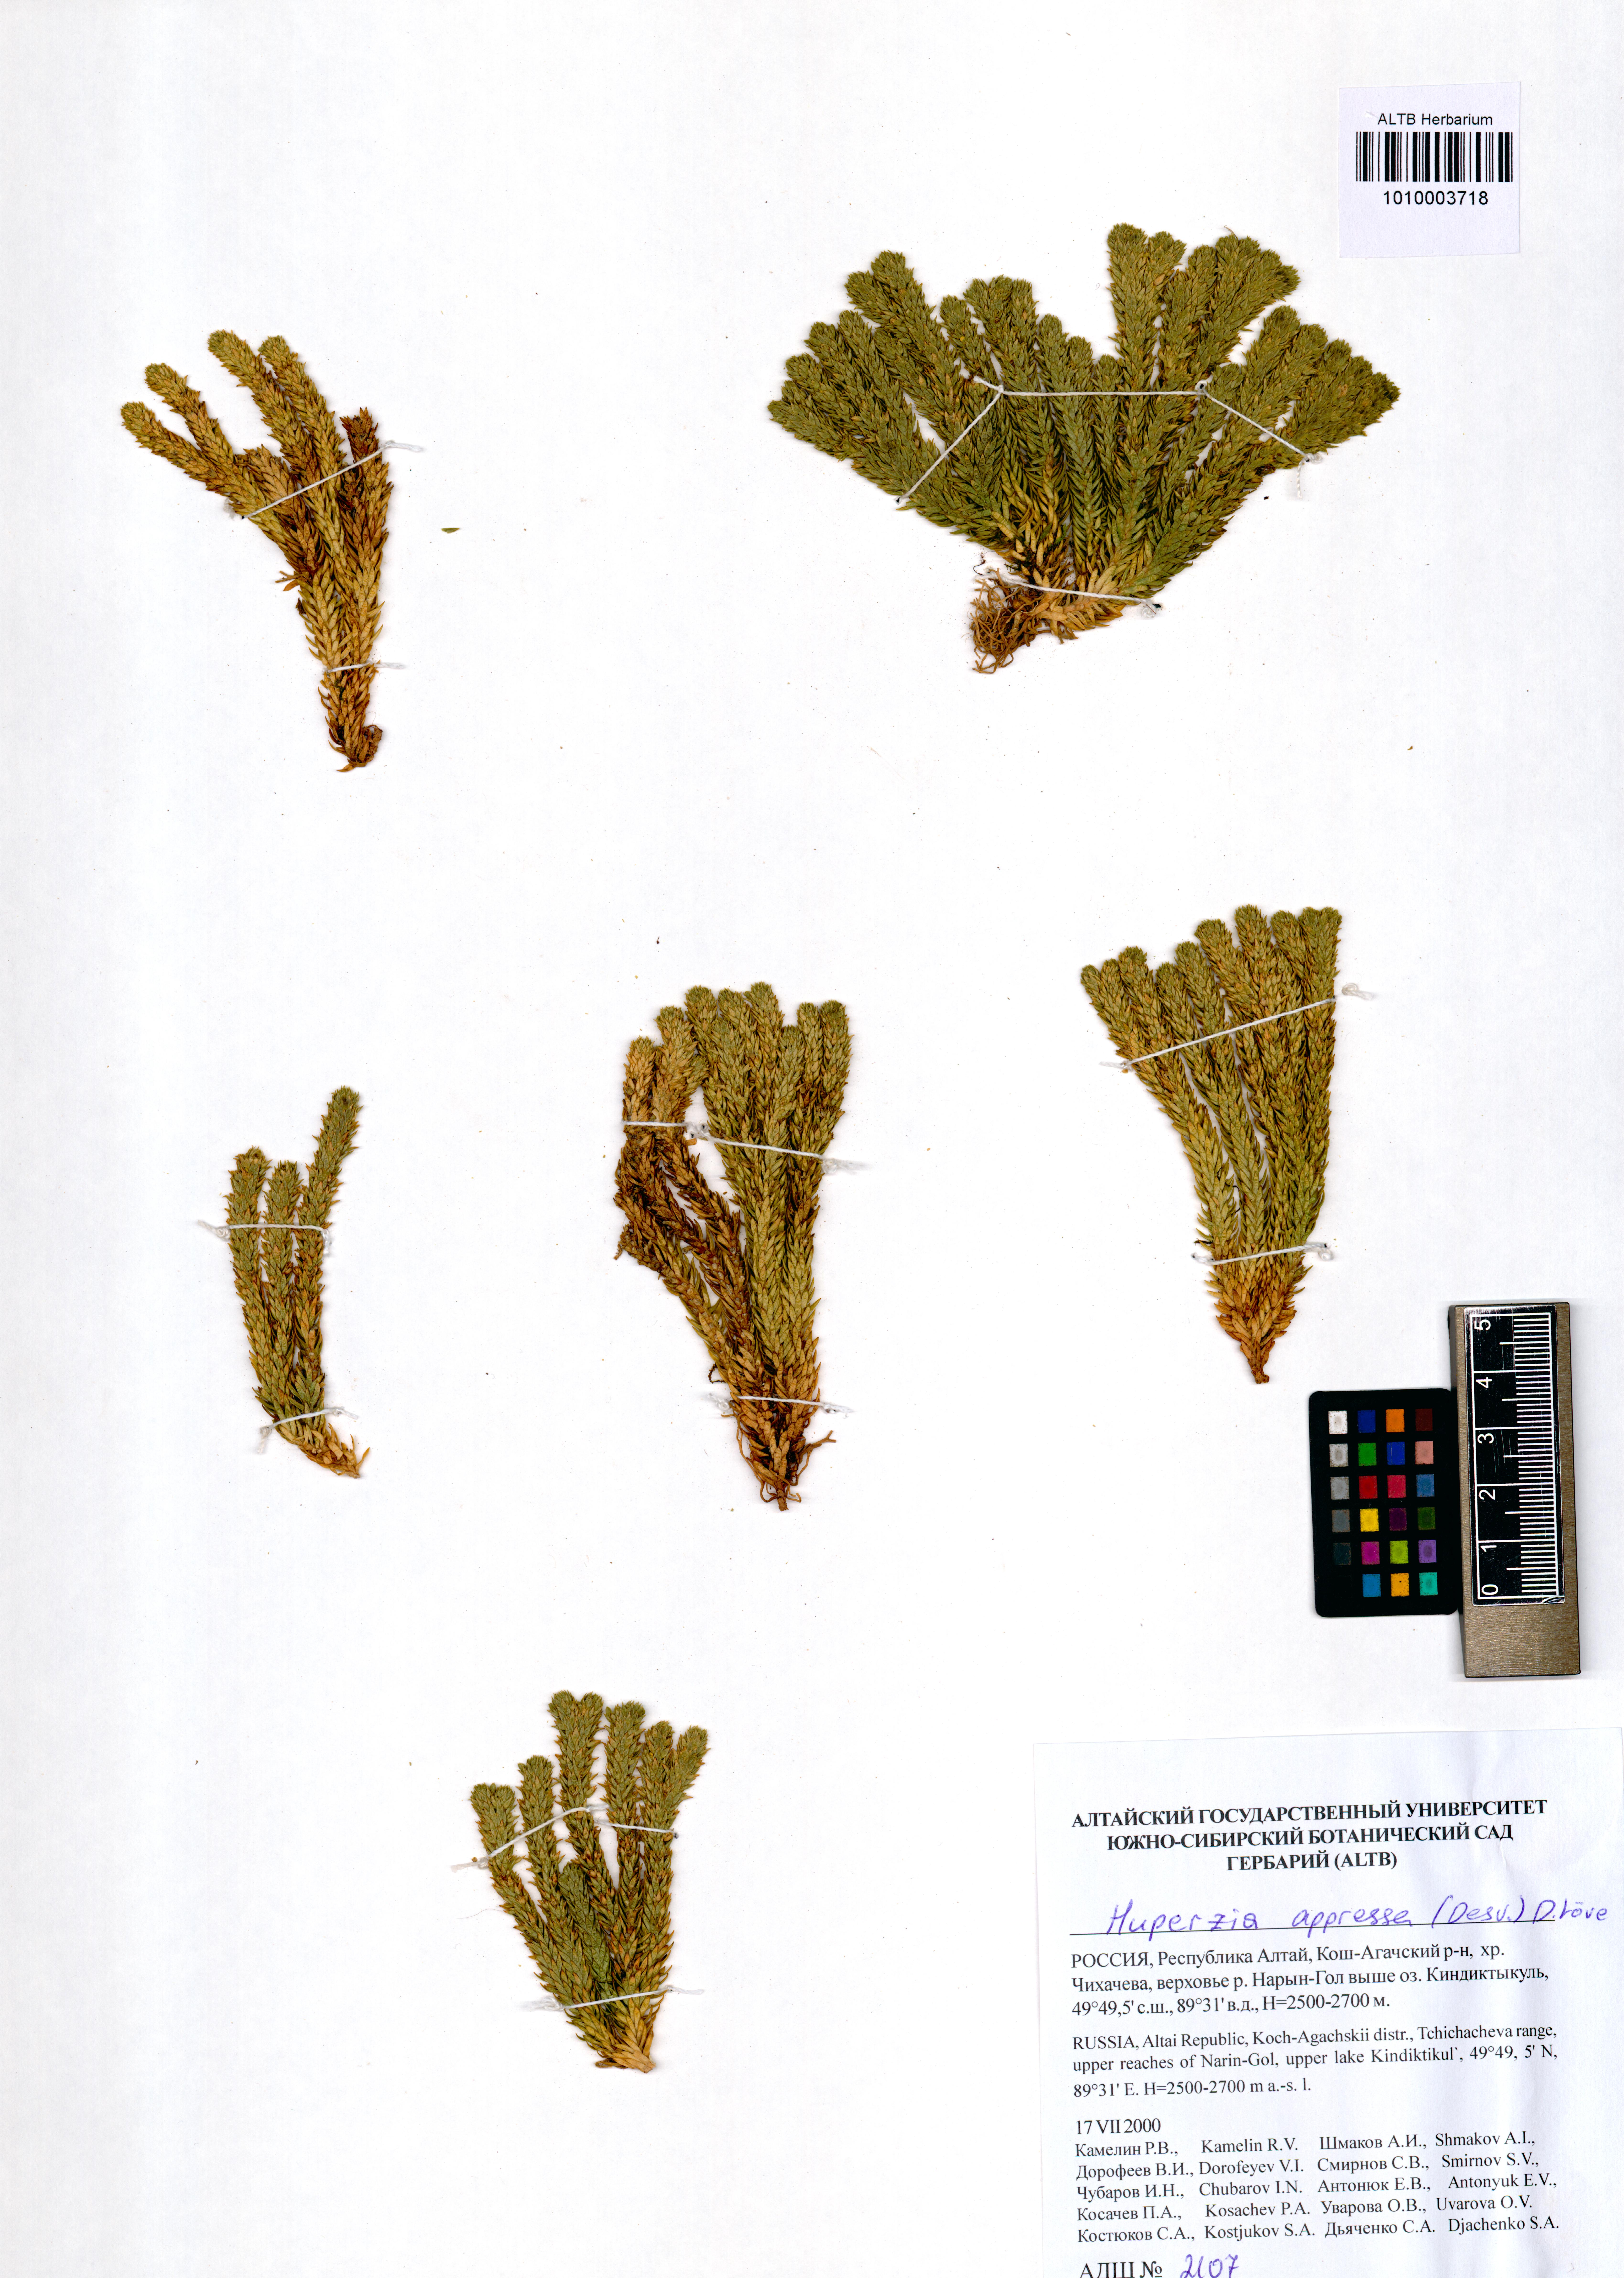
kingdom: Plantae
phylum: Tracheophyta
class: Lycopodiopsida
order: Lycopodiales
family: Lycopodiaceae
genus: Huperzia
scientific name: Huperzia selago
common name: Northern firmoss
